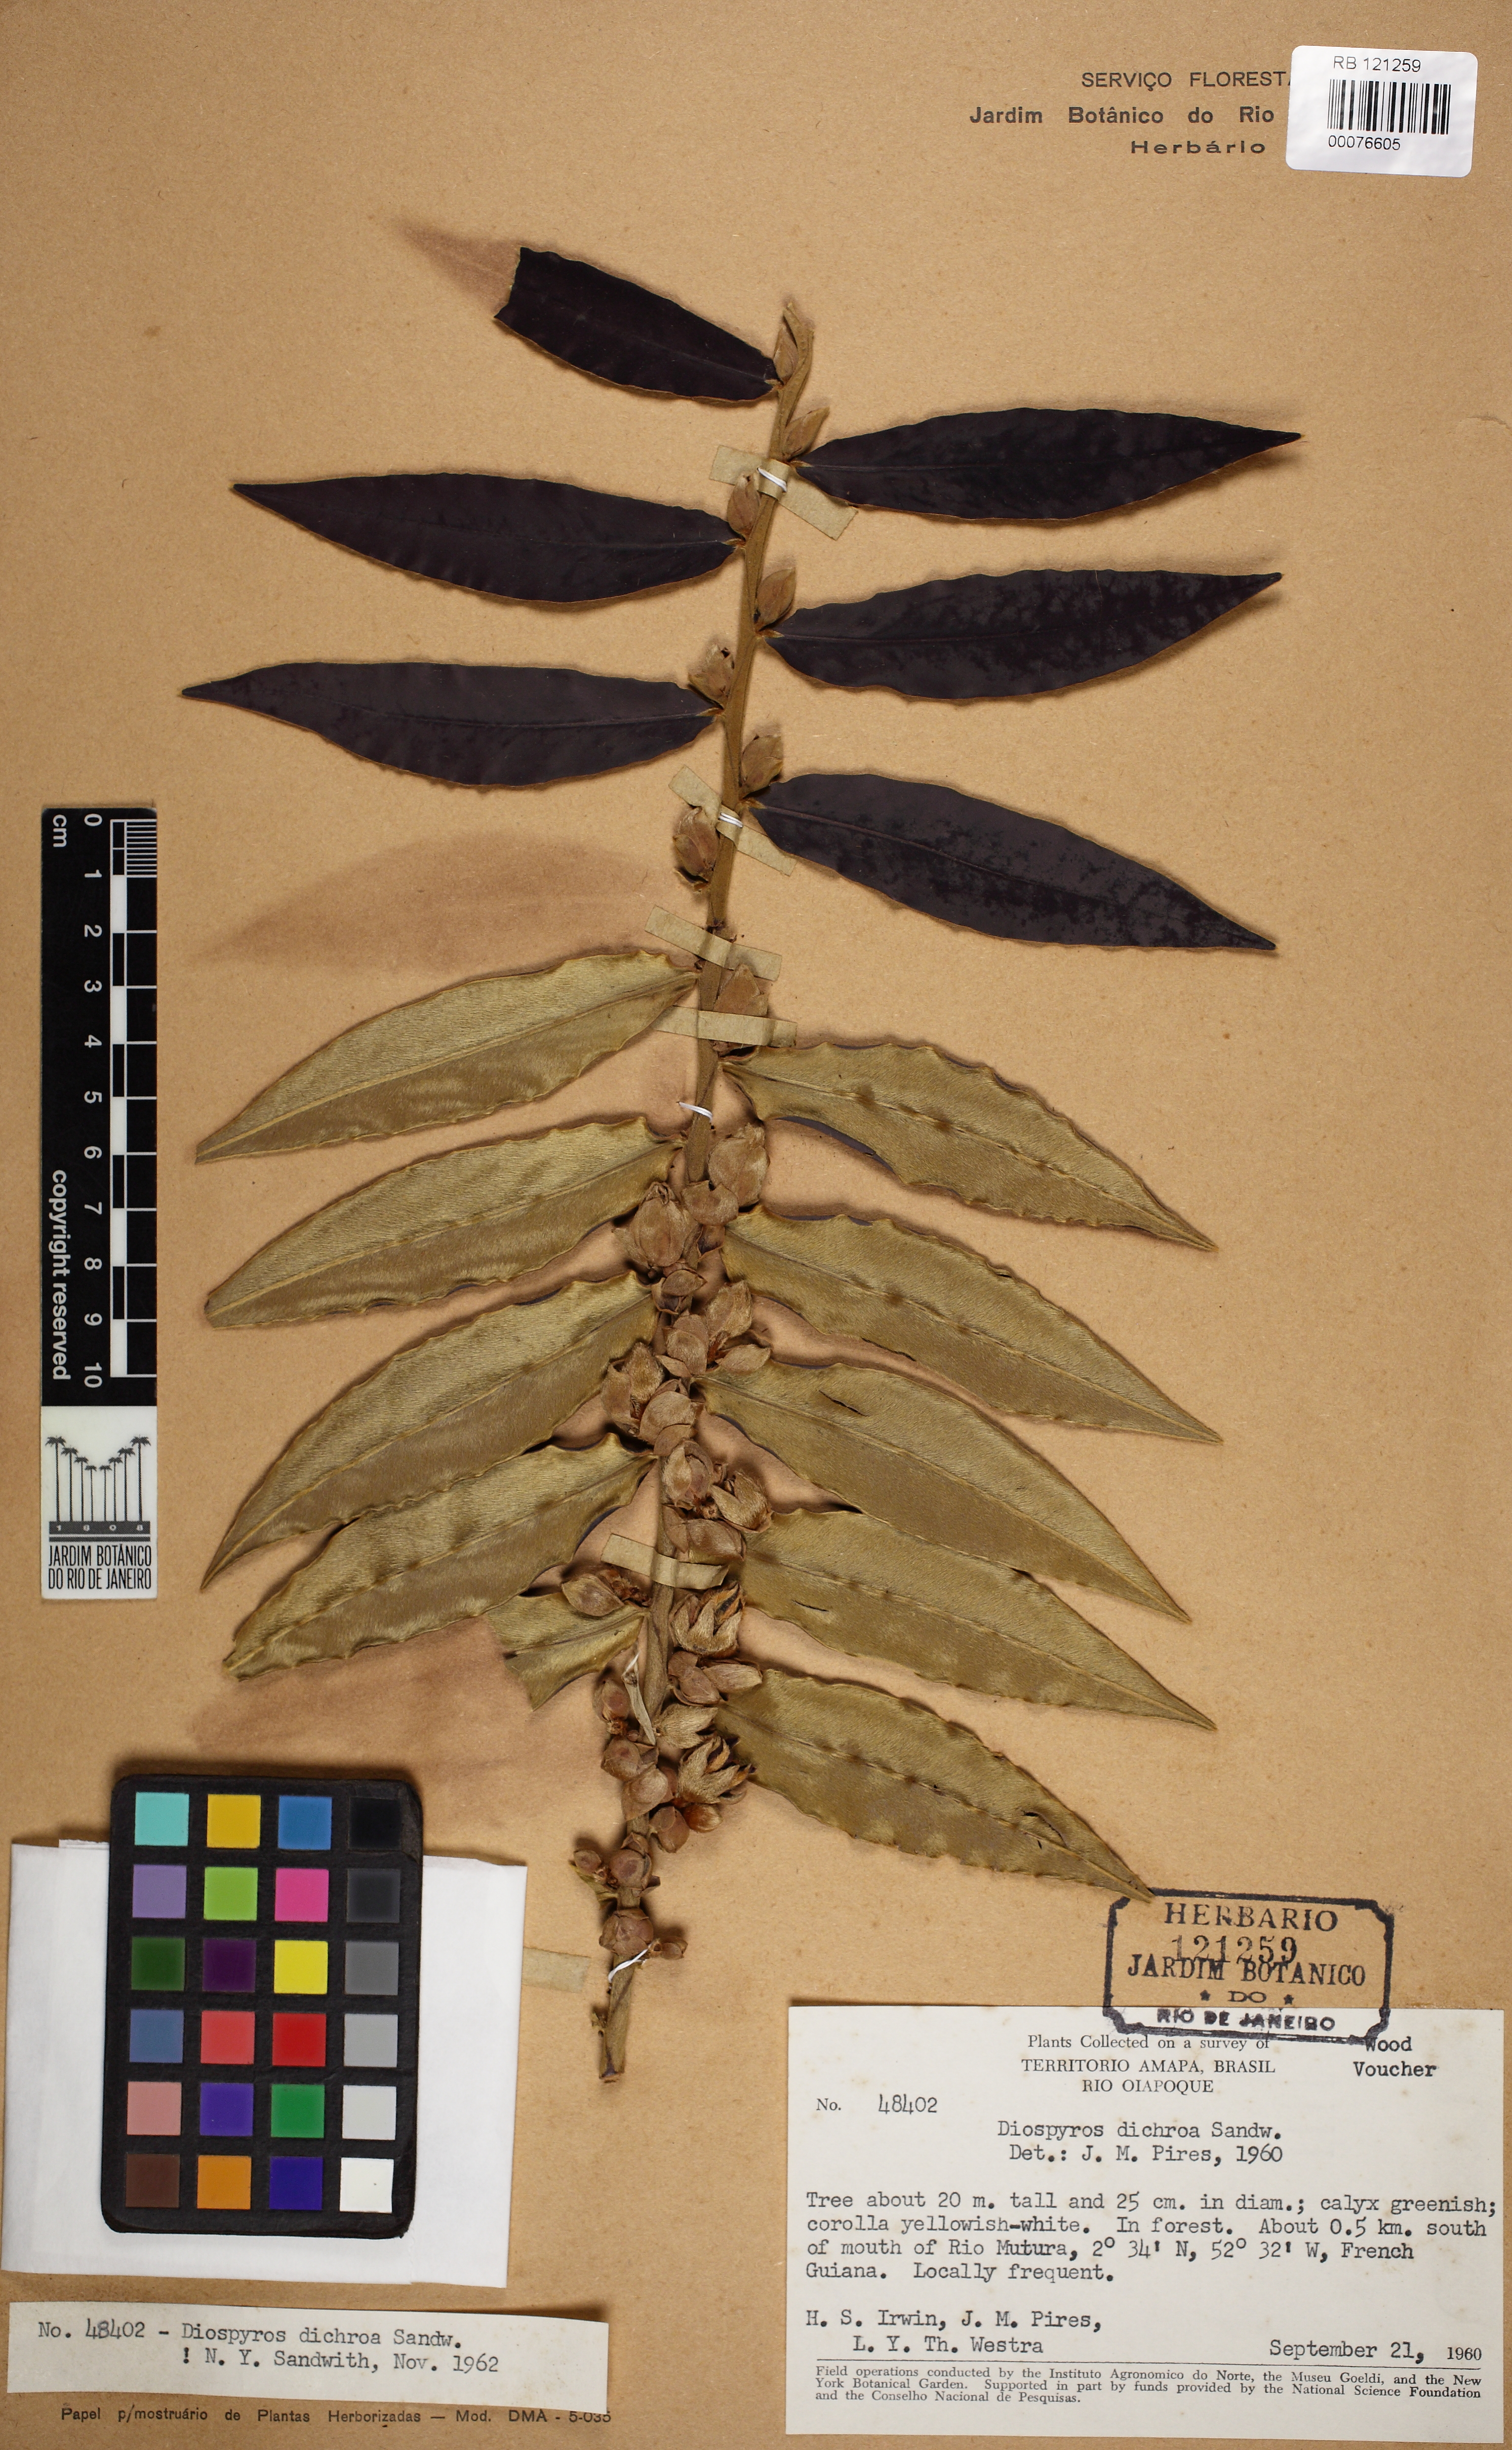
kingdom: Plantae
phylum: Tracheophyta
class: Magnoliopsida
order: Ericales
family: Ebenaceae
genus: Diospyros
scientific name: Diospyros dichroa
